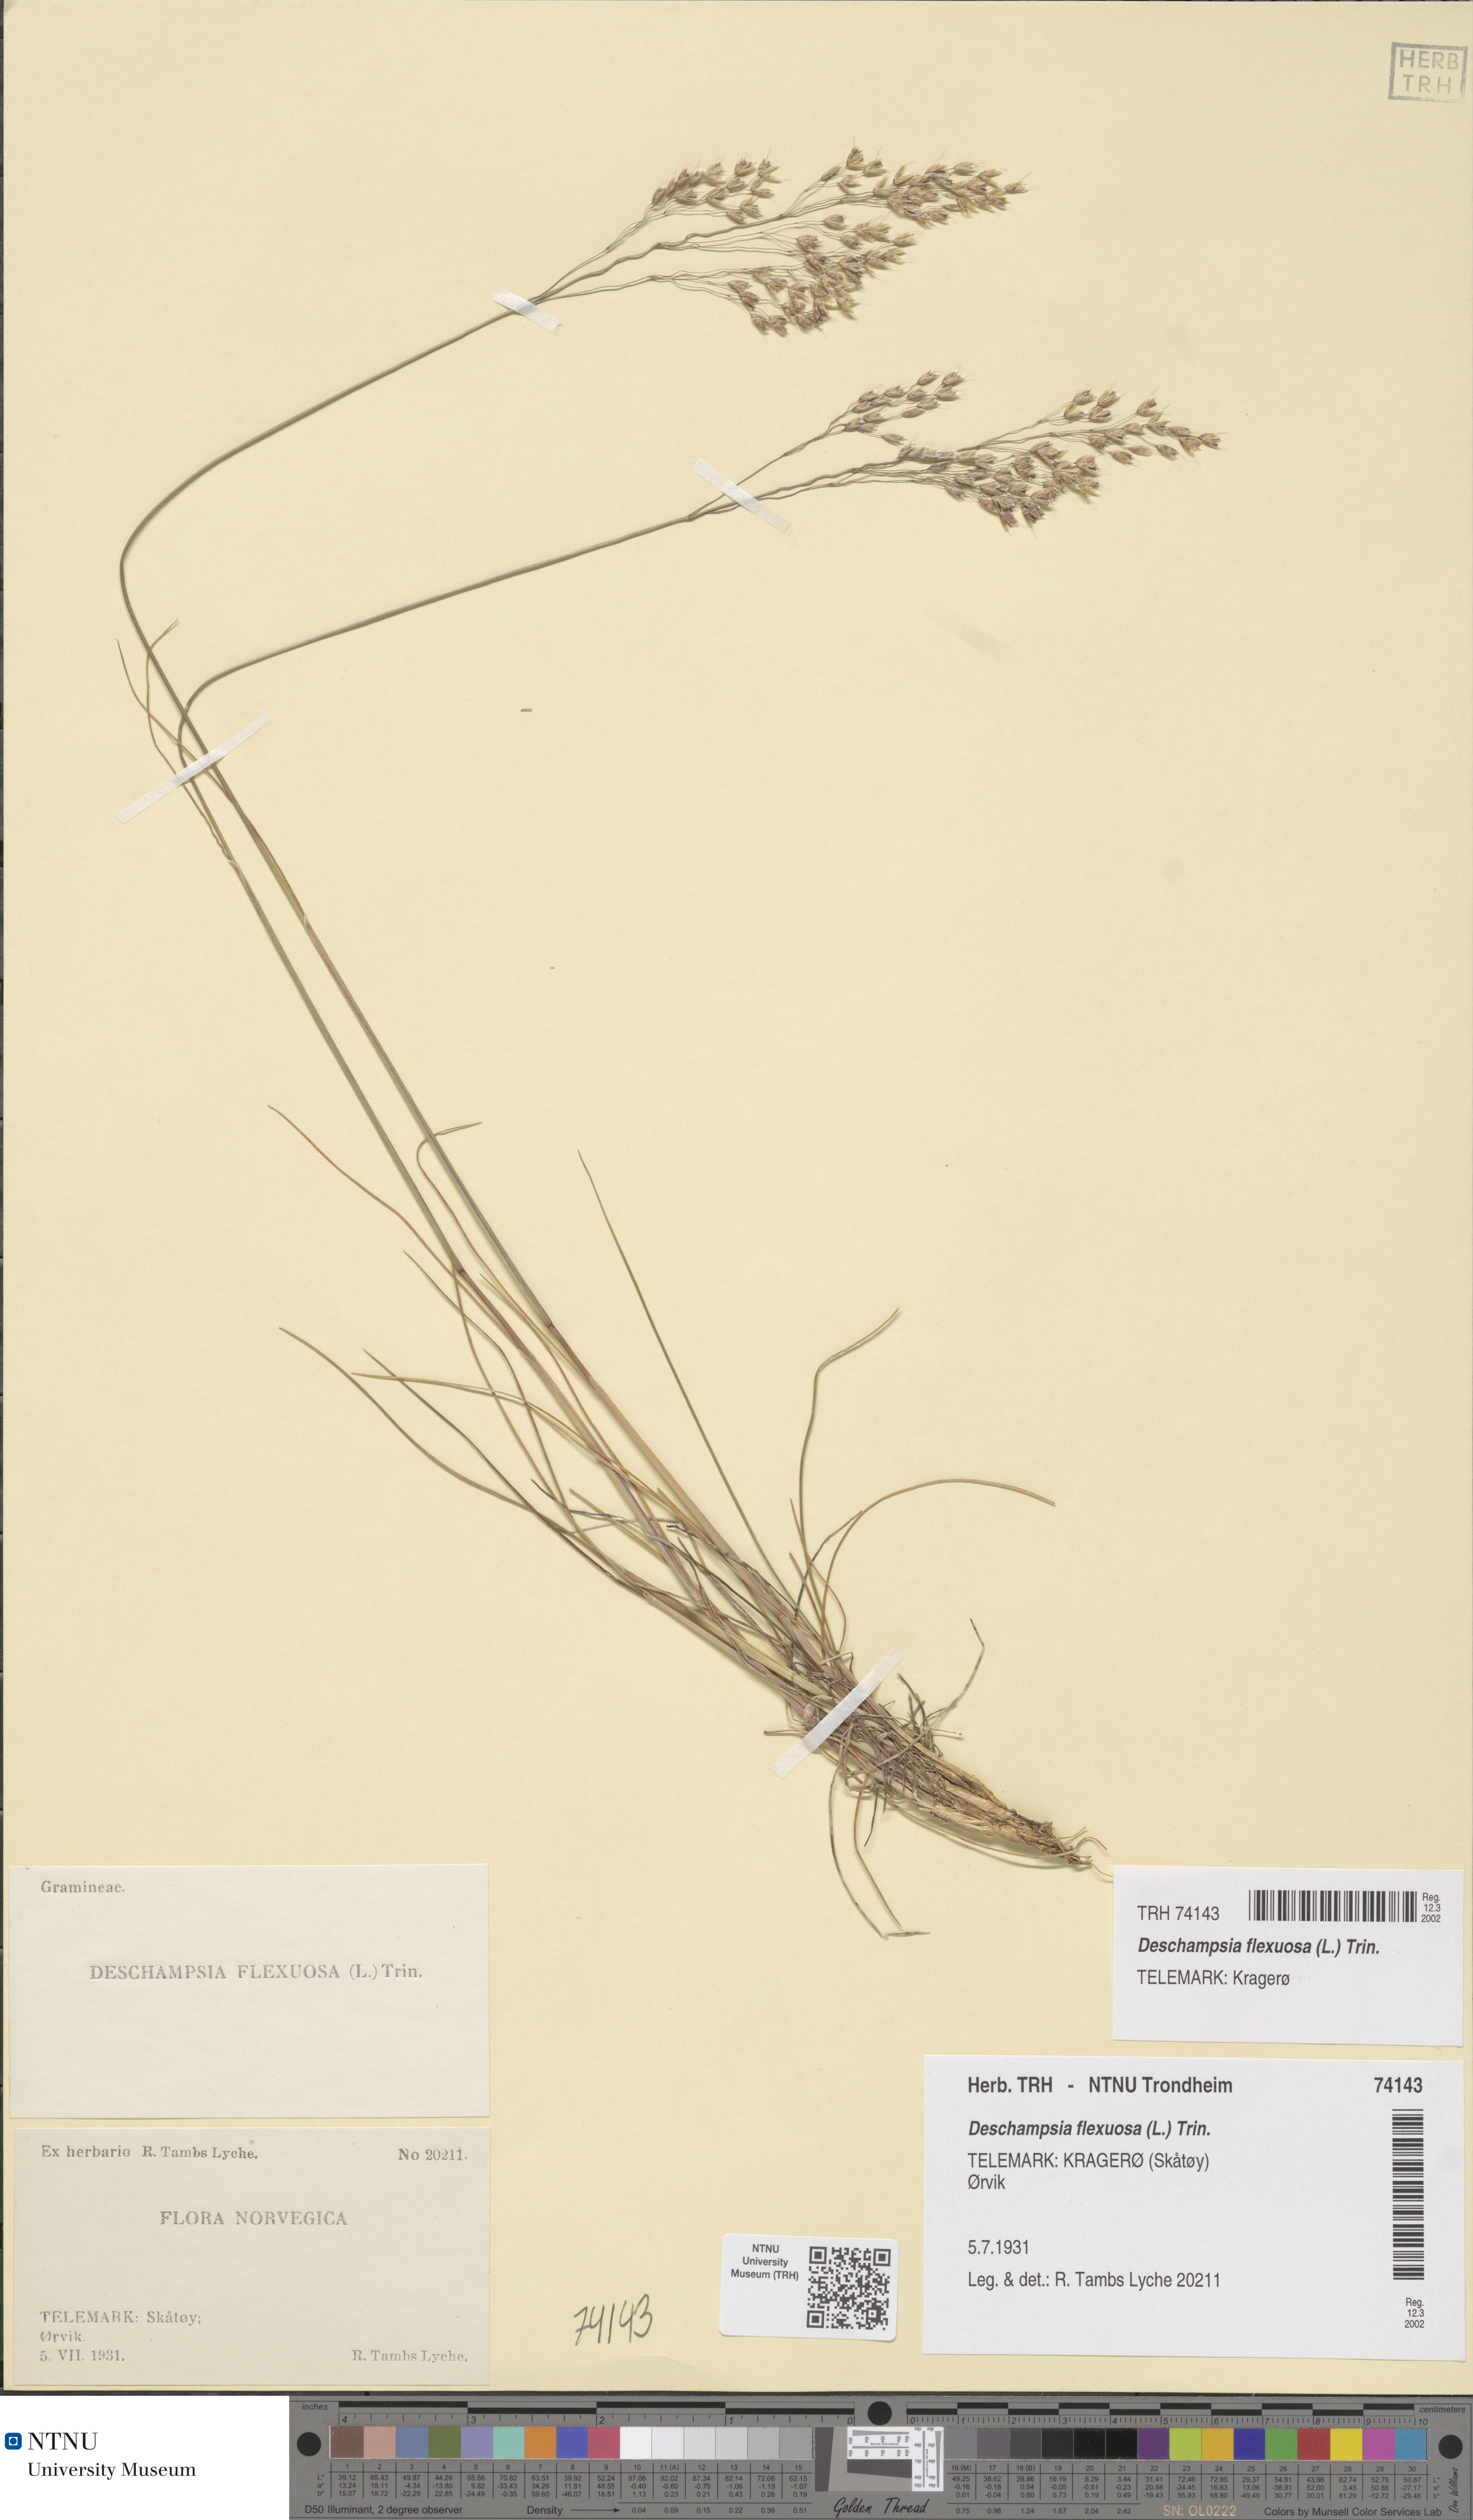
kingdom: Plantae
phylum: Tracheophyta
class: Liliopsida
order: Poales
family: Poaceae
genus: Avenella
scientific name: Avenella flexuosa
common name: Wavy hairgrass
